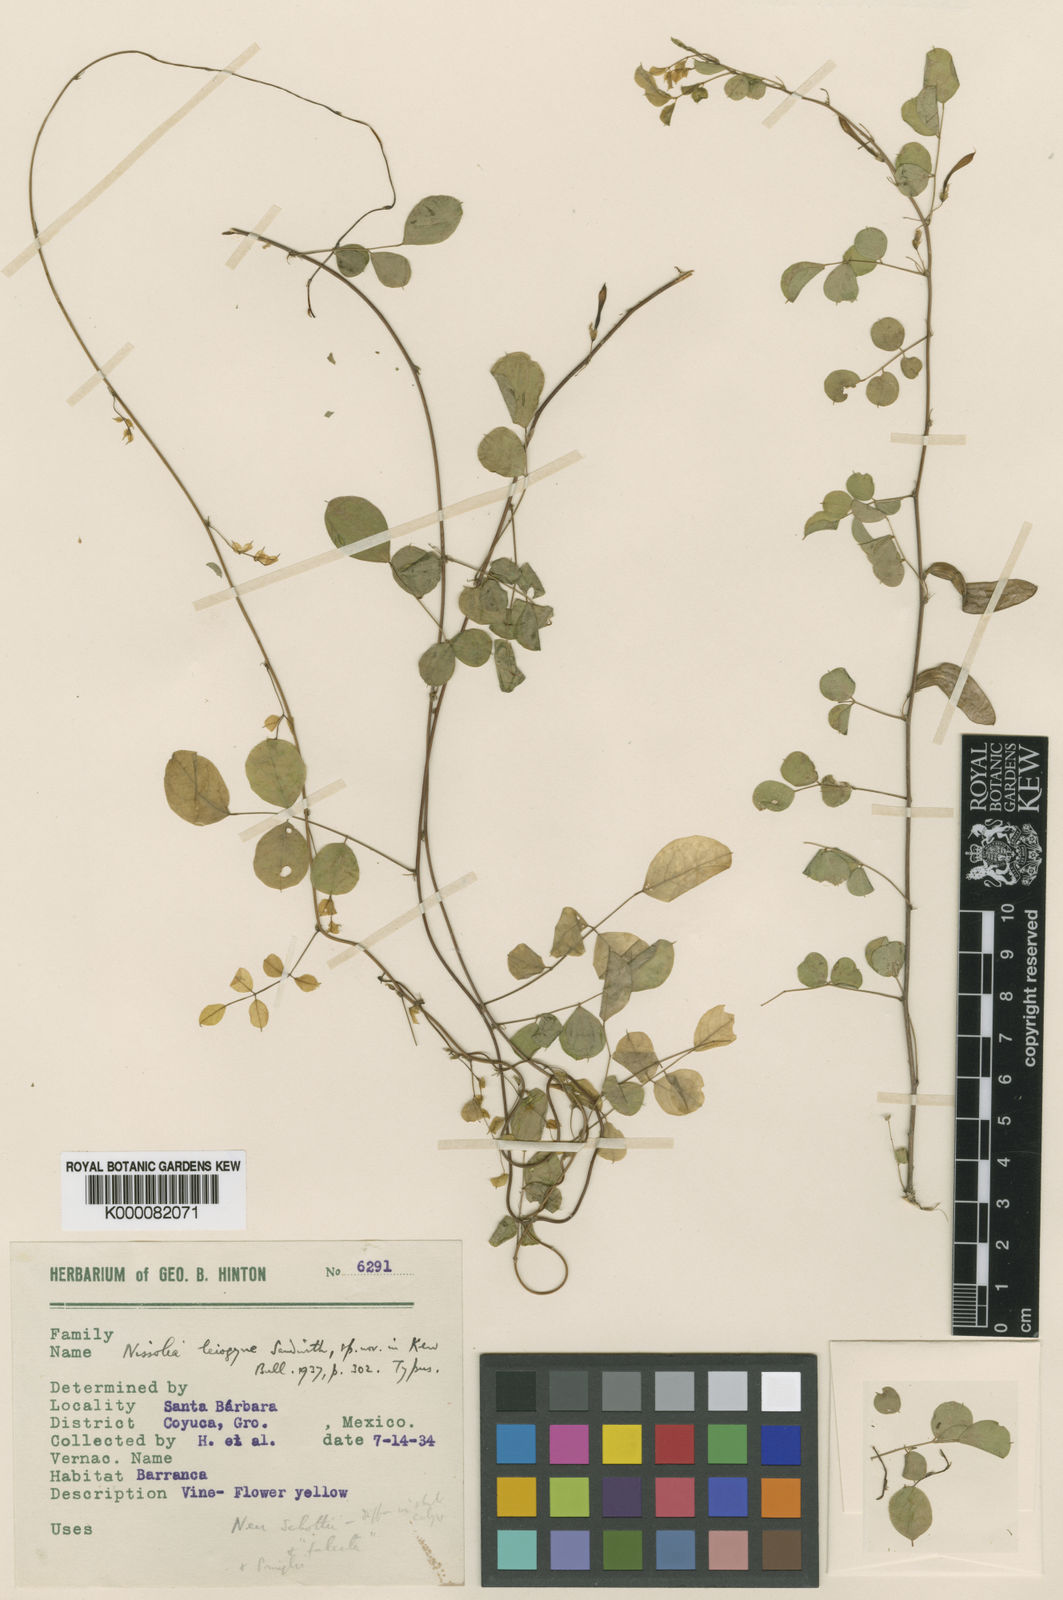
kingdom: Plantae
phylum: Tracheophyta
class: Magnoliopsida
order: Fabales
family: Fabaceae
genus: Nissolia
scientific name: Nissolia leiogyne
